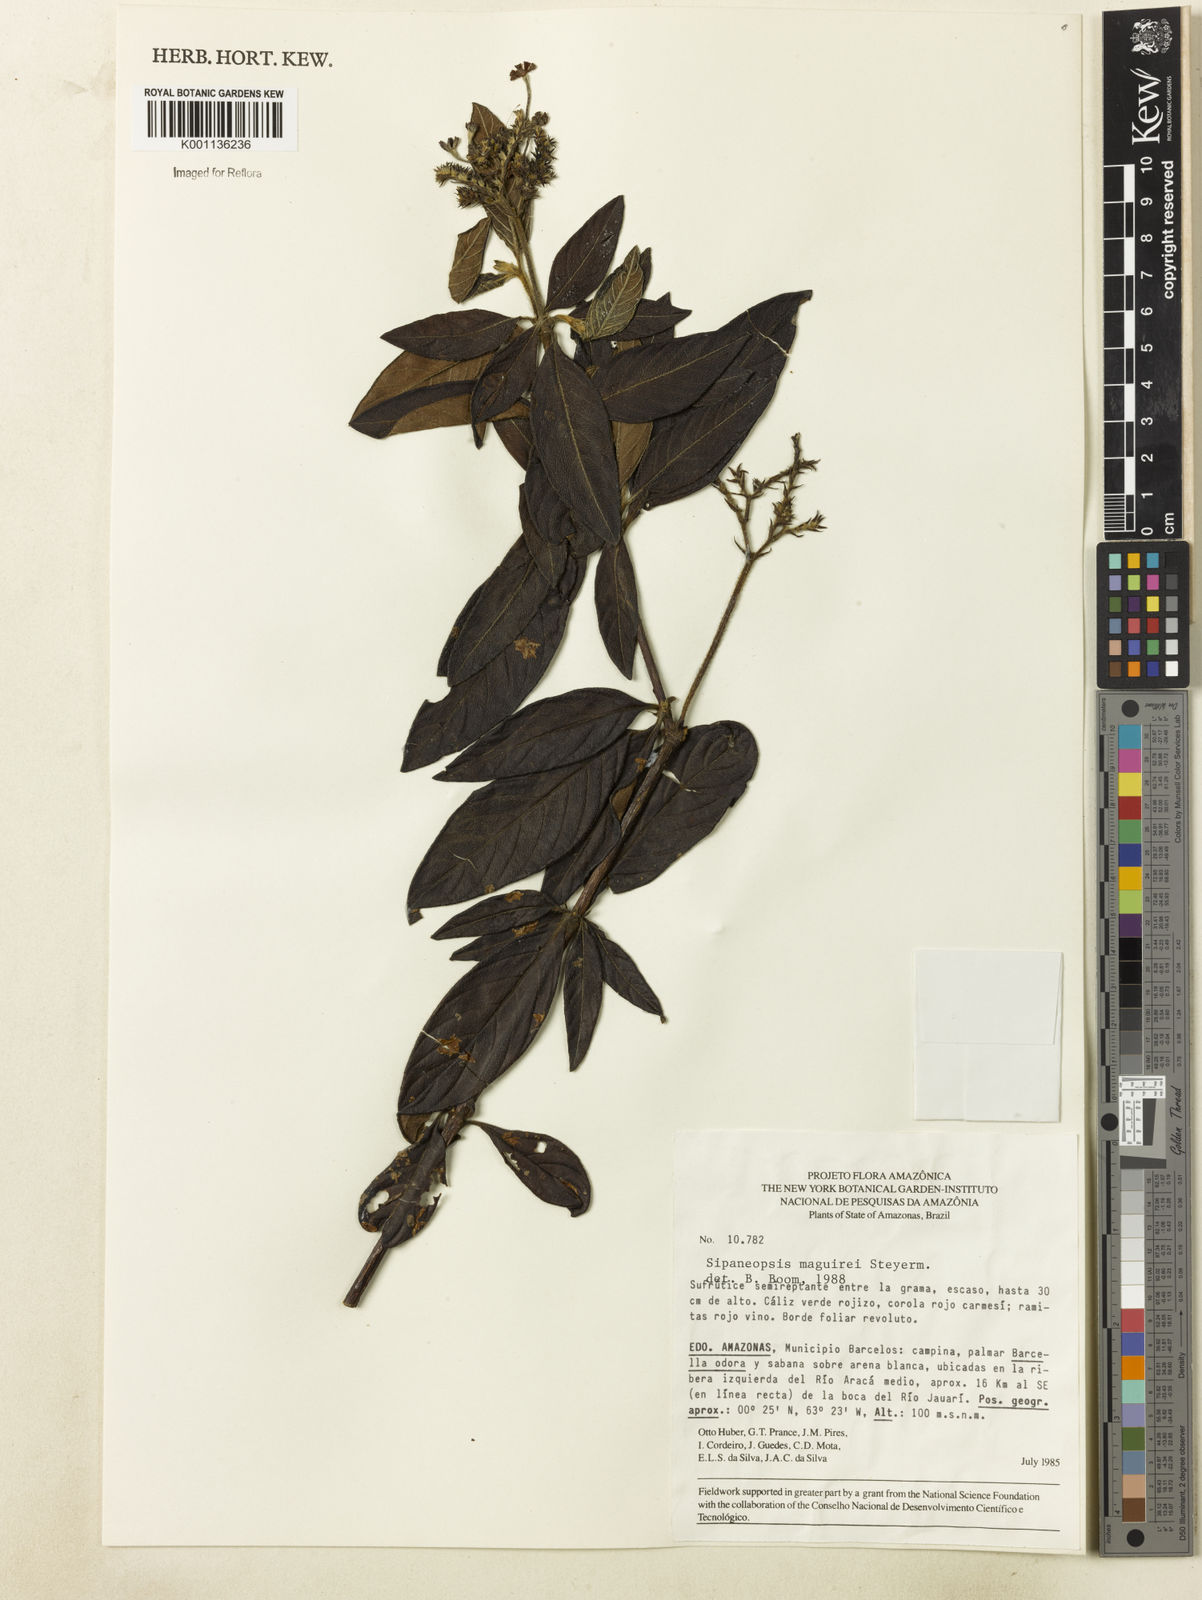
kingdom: Plantae
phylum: Tracheophyta
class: Magnoliopsida
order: Gentianales
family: Rubiaceae
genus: Sipaneopsis
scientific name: Sipaneopsis maguirei
